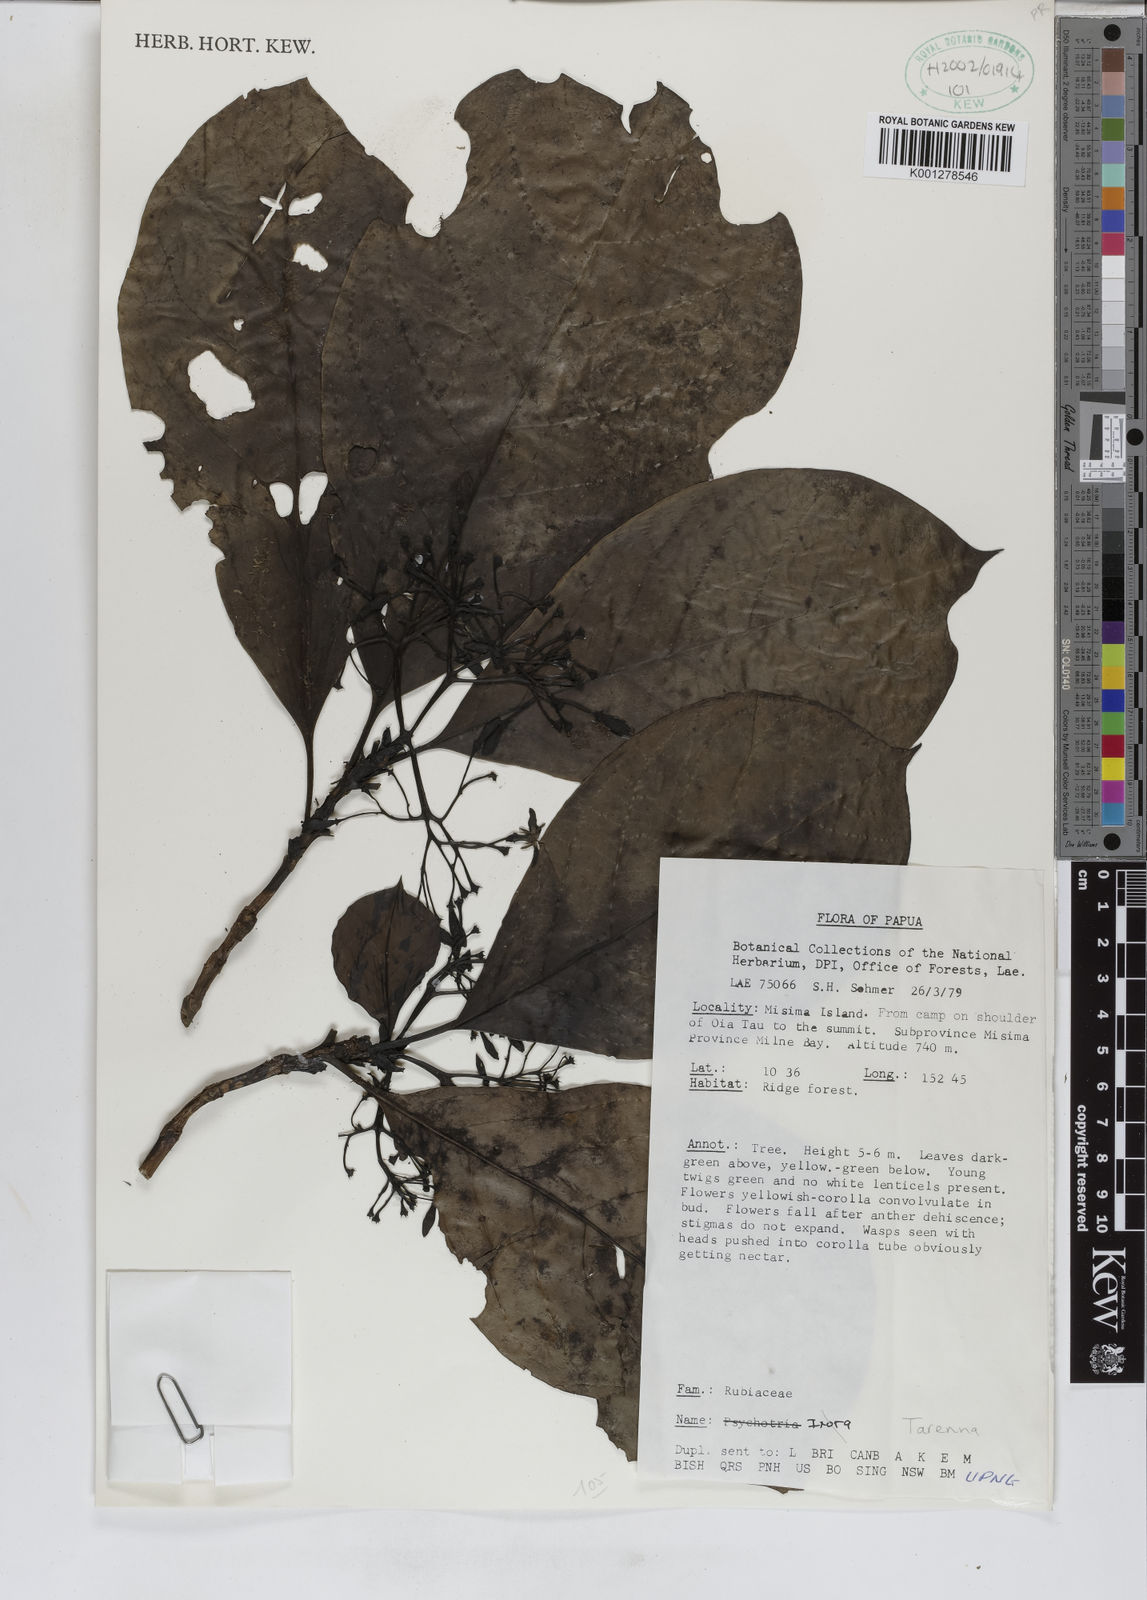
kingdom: Plantae
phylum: Tracheophyta
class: Magnoliopsida
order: Gentianales
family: Rubiaceae
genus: Tarenna
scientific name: Tarenna
